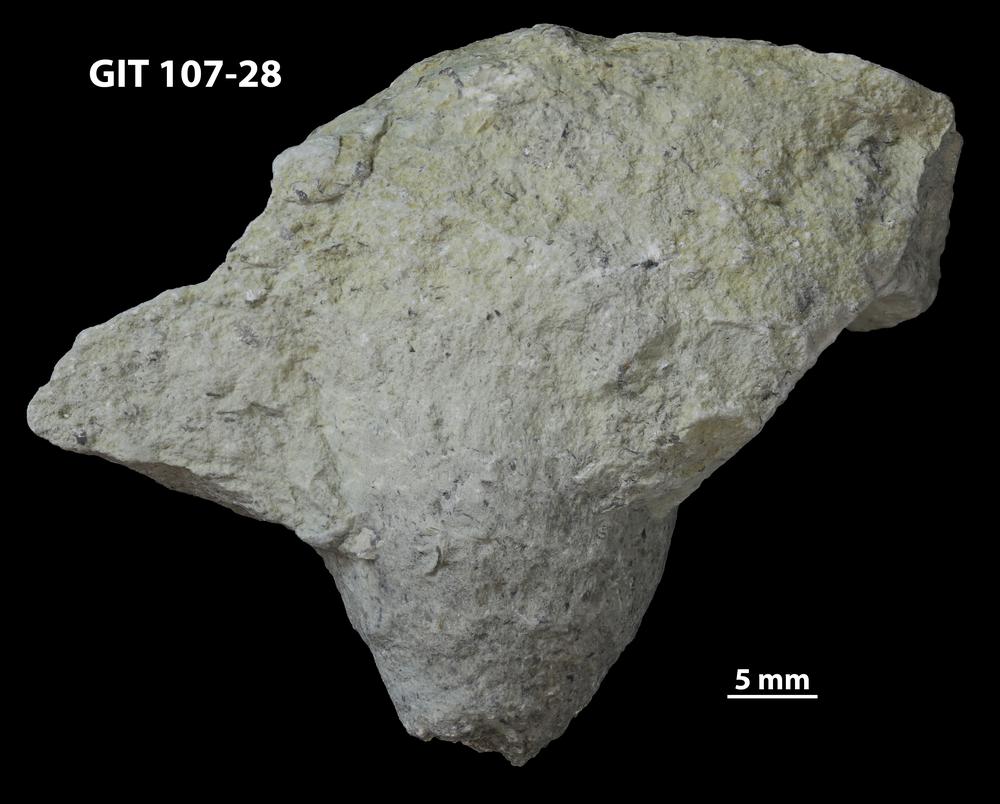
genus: Amphorichnus
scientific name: Amphorichnus
